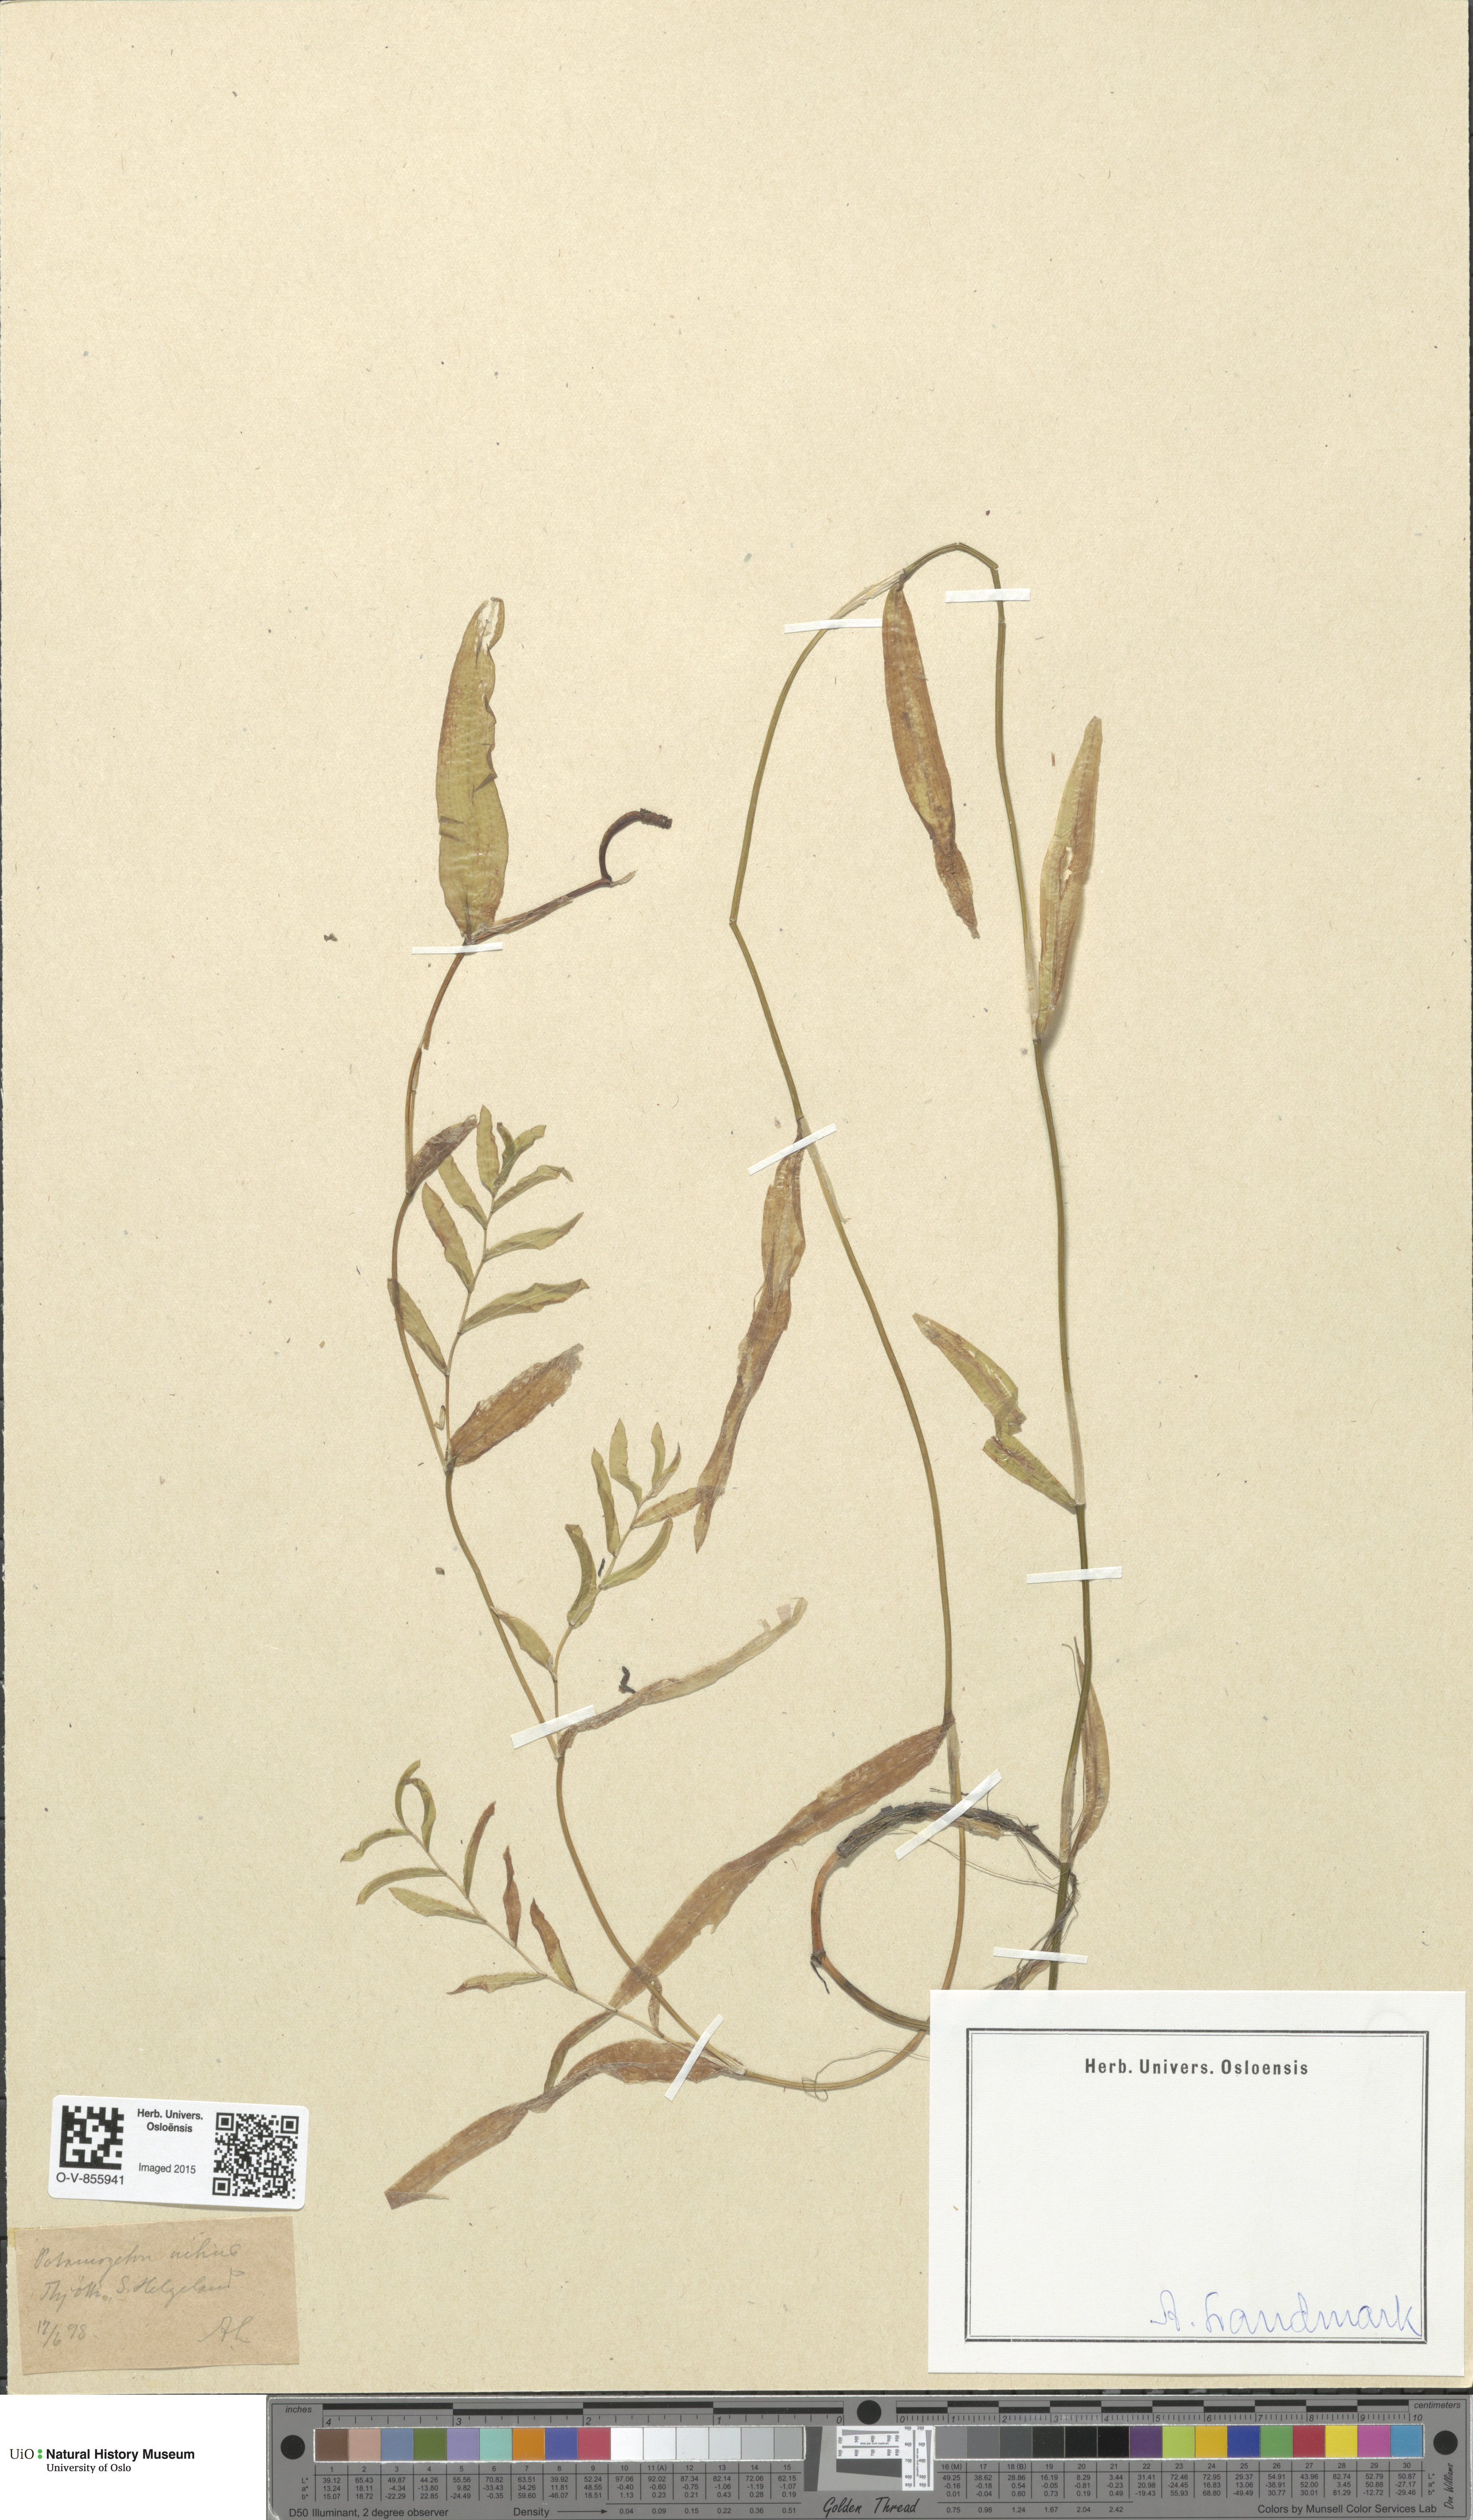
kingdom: Plantae
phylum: Tracheophyta
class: Liliopsida
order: Alismatales
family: Potamogetonaceae
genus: Potamogeton
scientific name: Potamogeton nitens
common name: Pondweed
